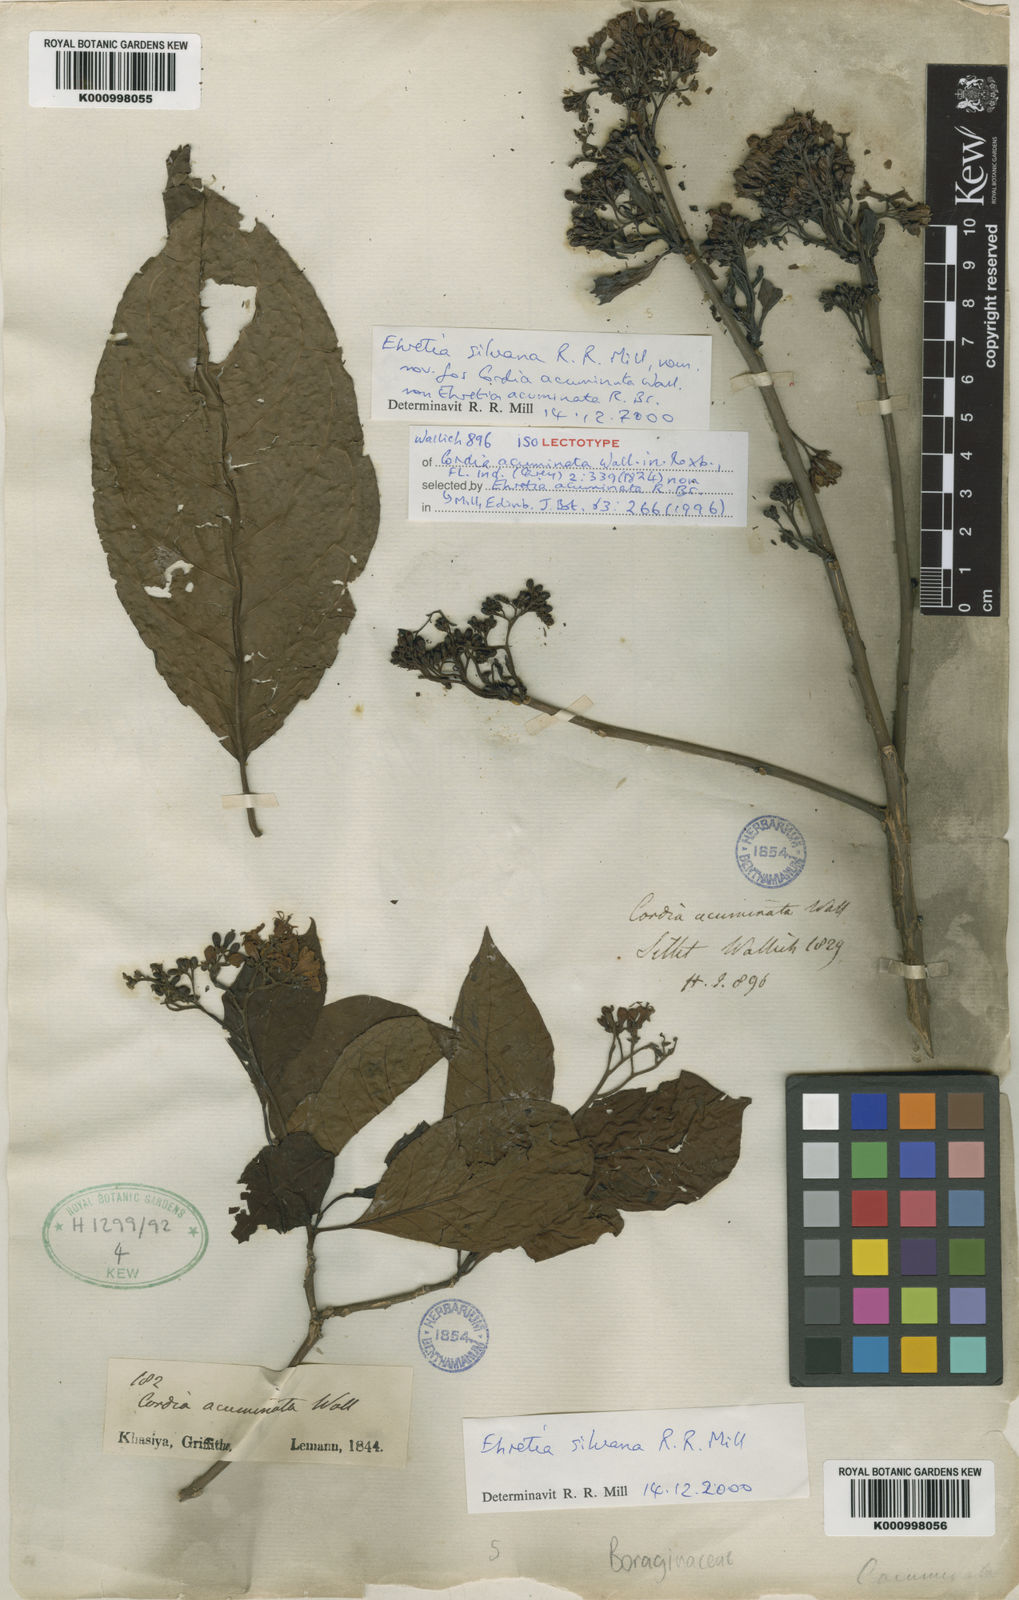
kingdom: Plantae
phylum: Tracheophyta
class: Magnoliopsida
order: Boraginales
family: Cordiaceae
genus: Cordia
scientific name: Cordia
